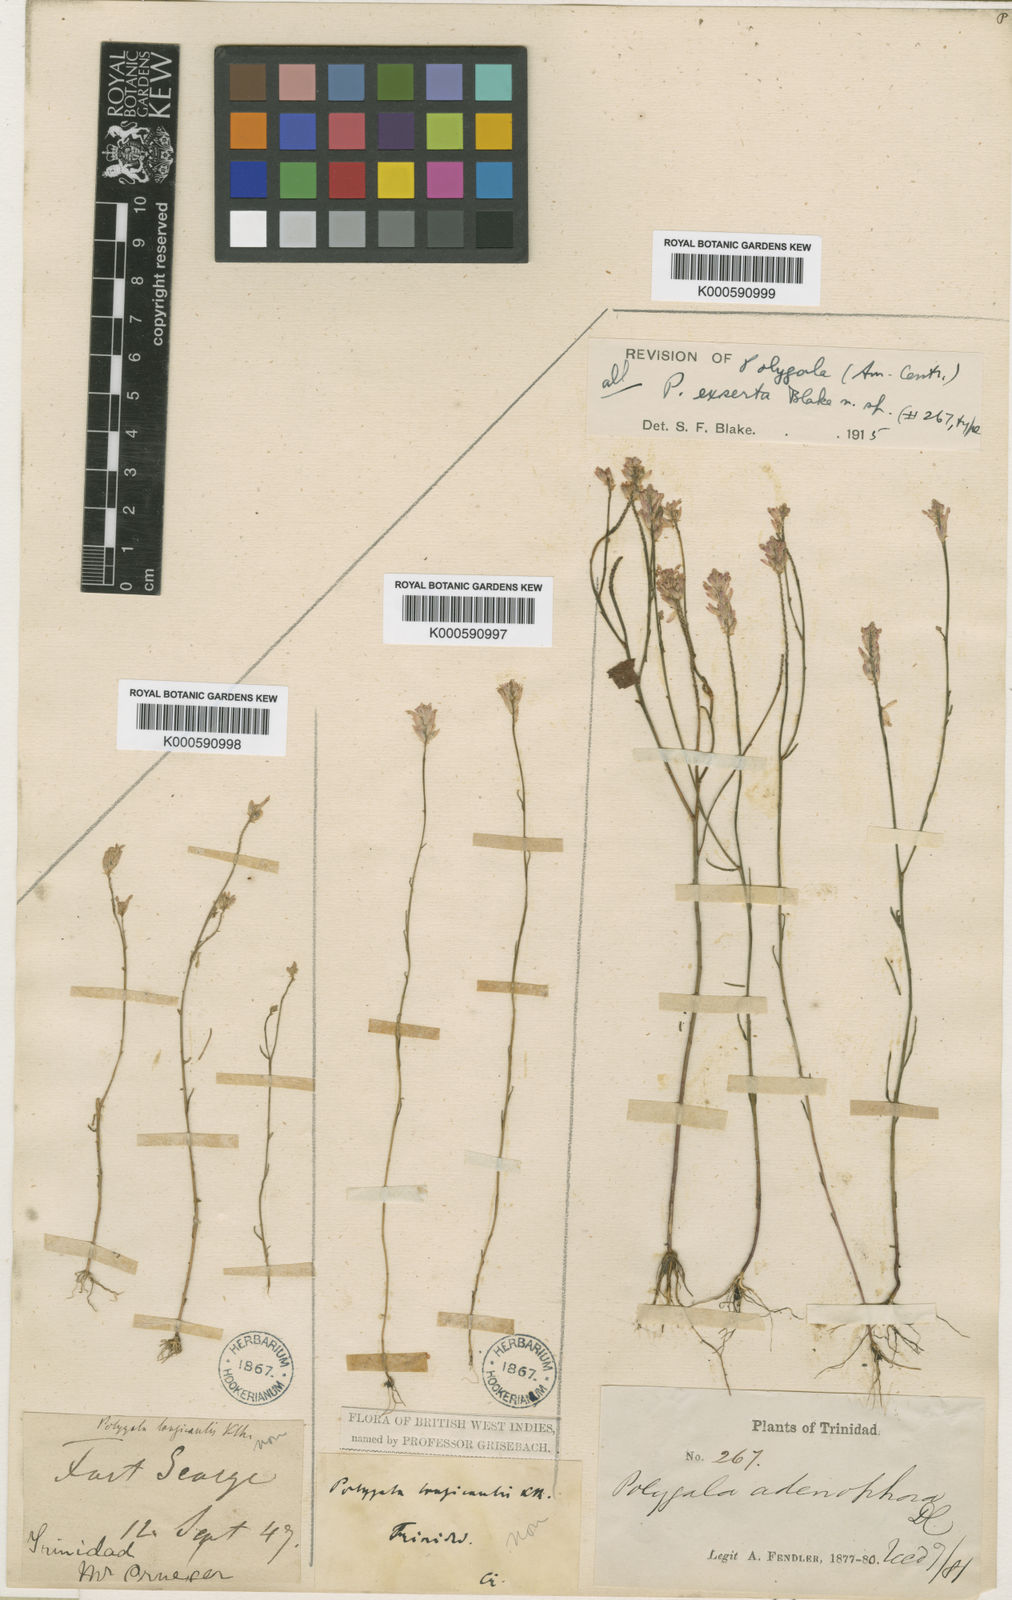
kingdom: Plantae
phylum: Tracheophyta
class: Magnoliopsida
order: Fabales
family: Polygalaceae
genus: Polygala
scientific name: Polygala exserta
